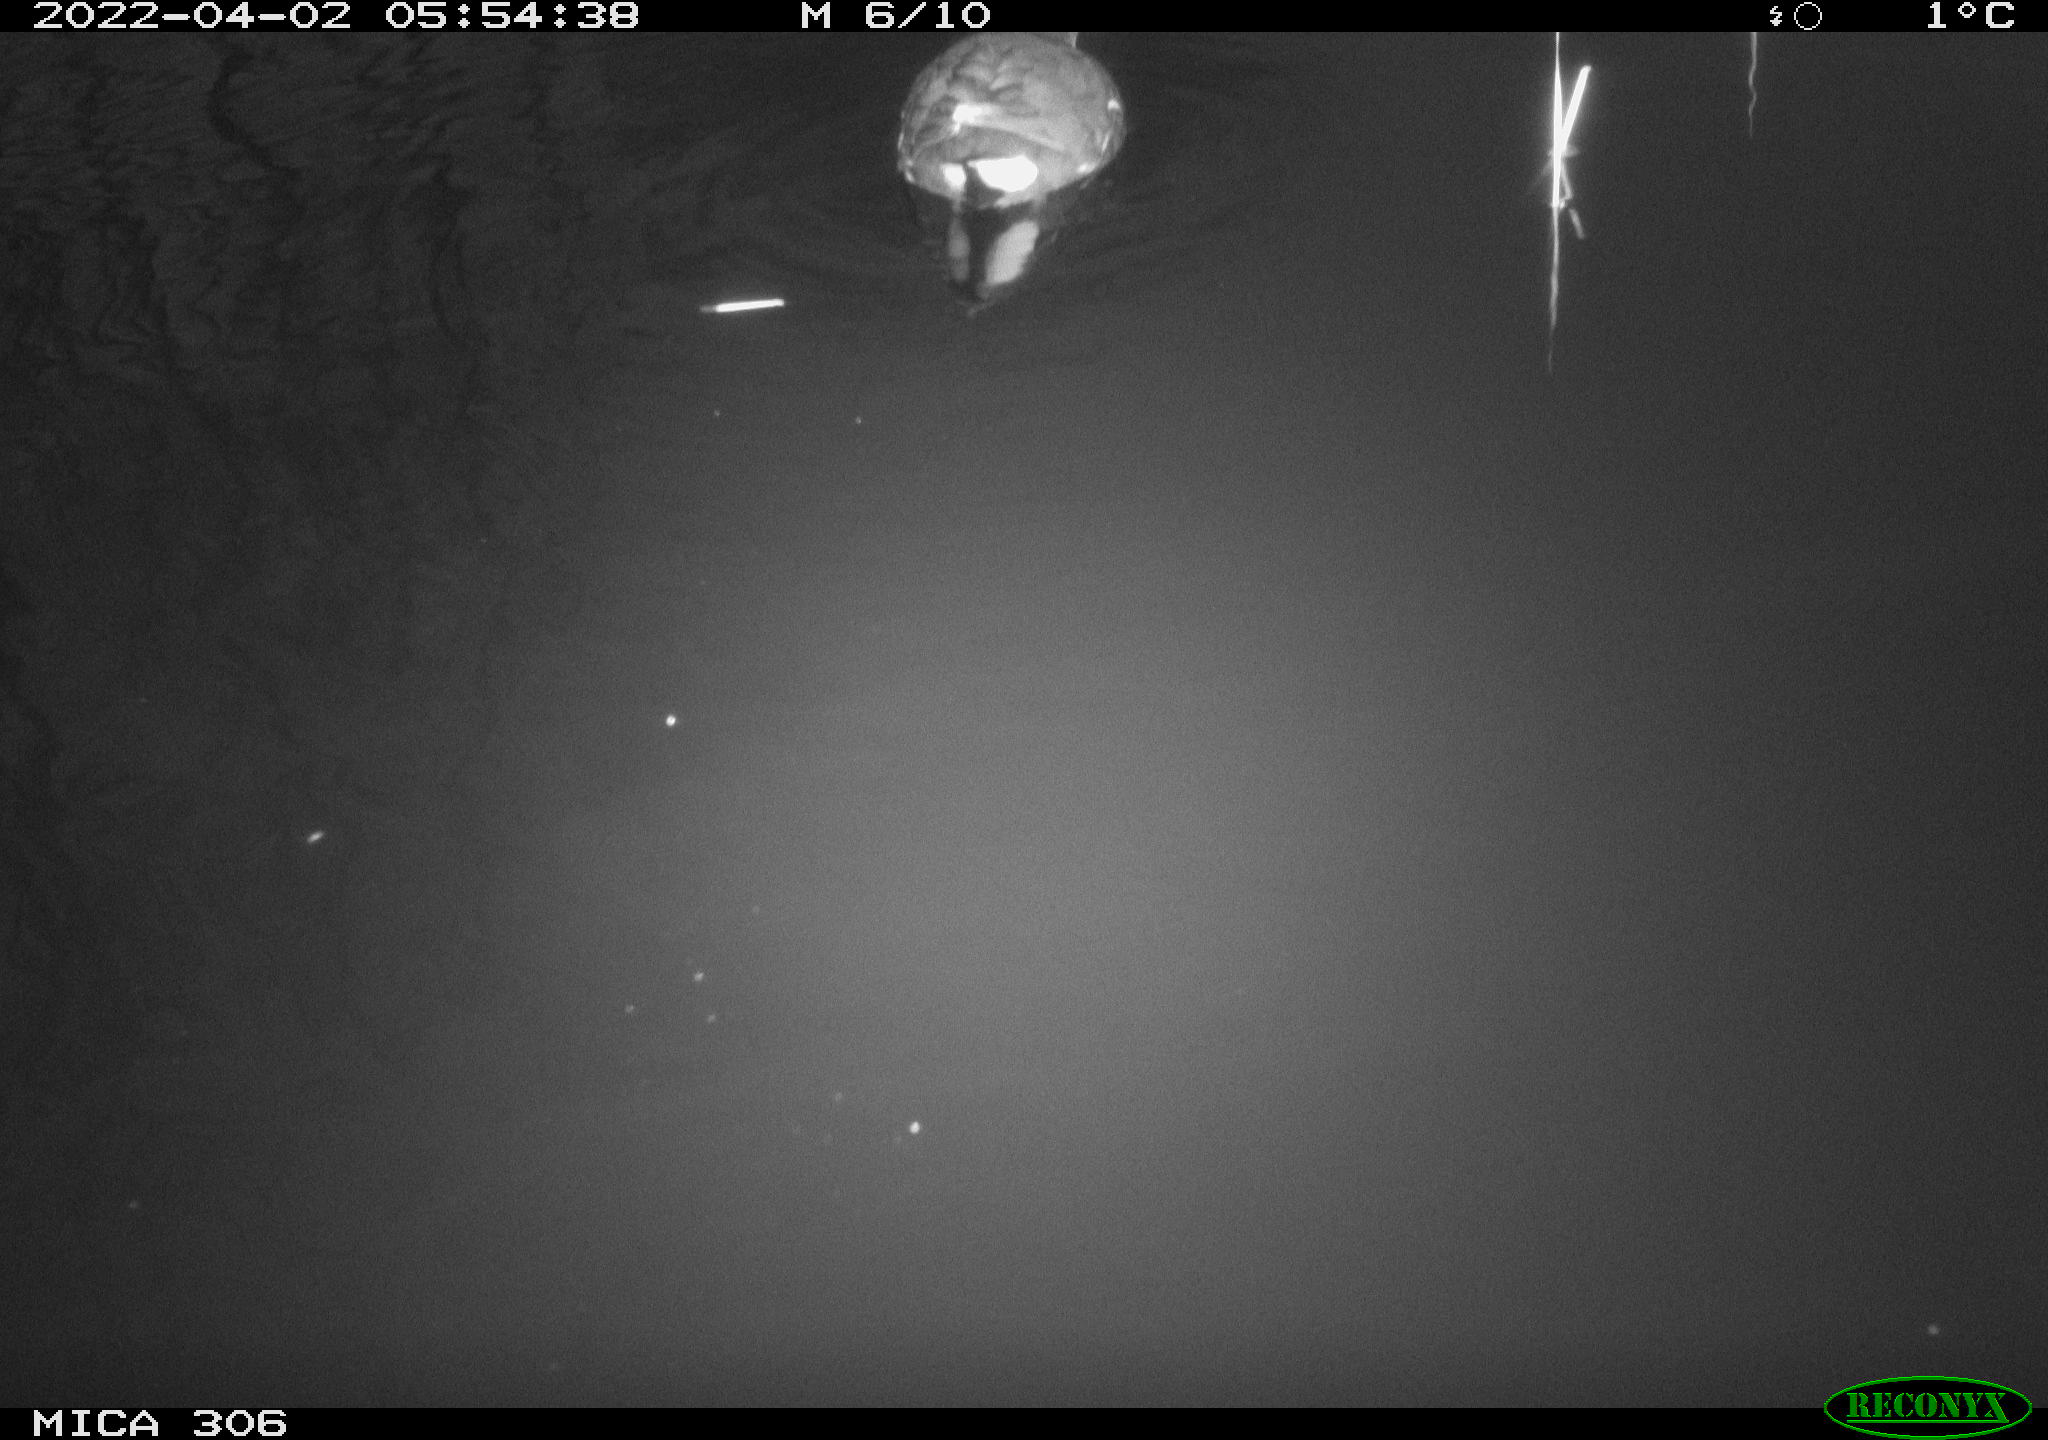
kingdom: Animalia
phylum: Chordata
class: Aves
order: Gruiformes
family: Rallidae
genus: Gallinula
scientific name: Gallinula chloropus
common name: Common moorhen
